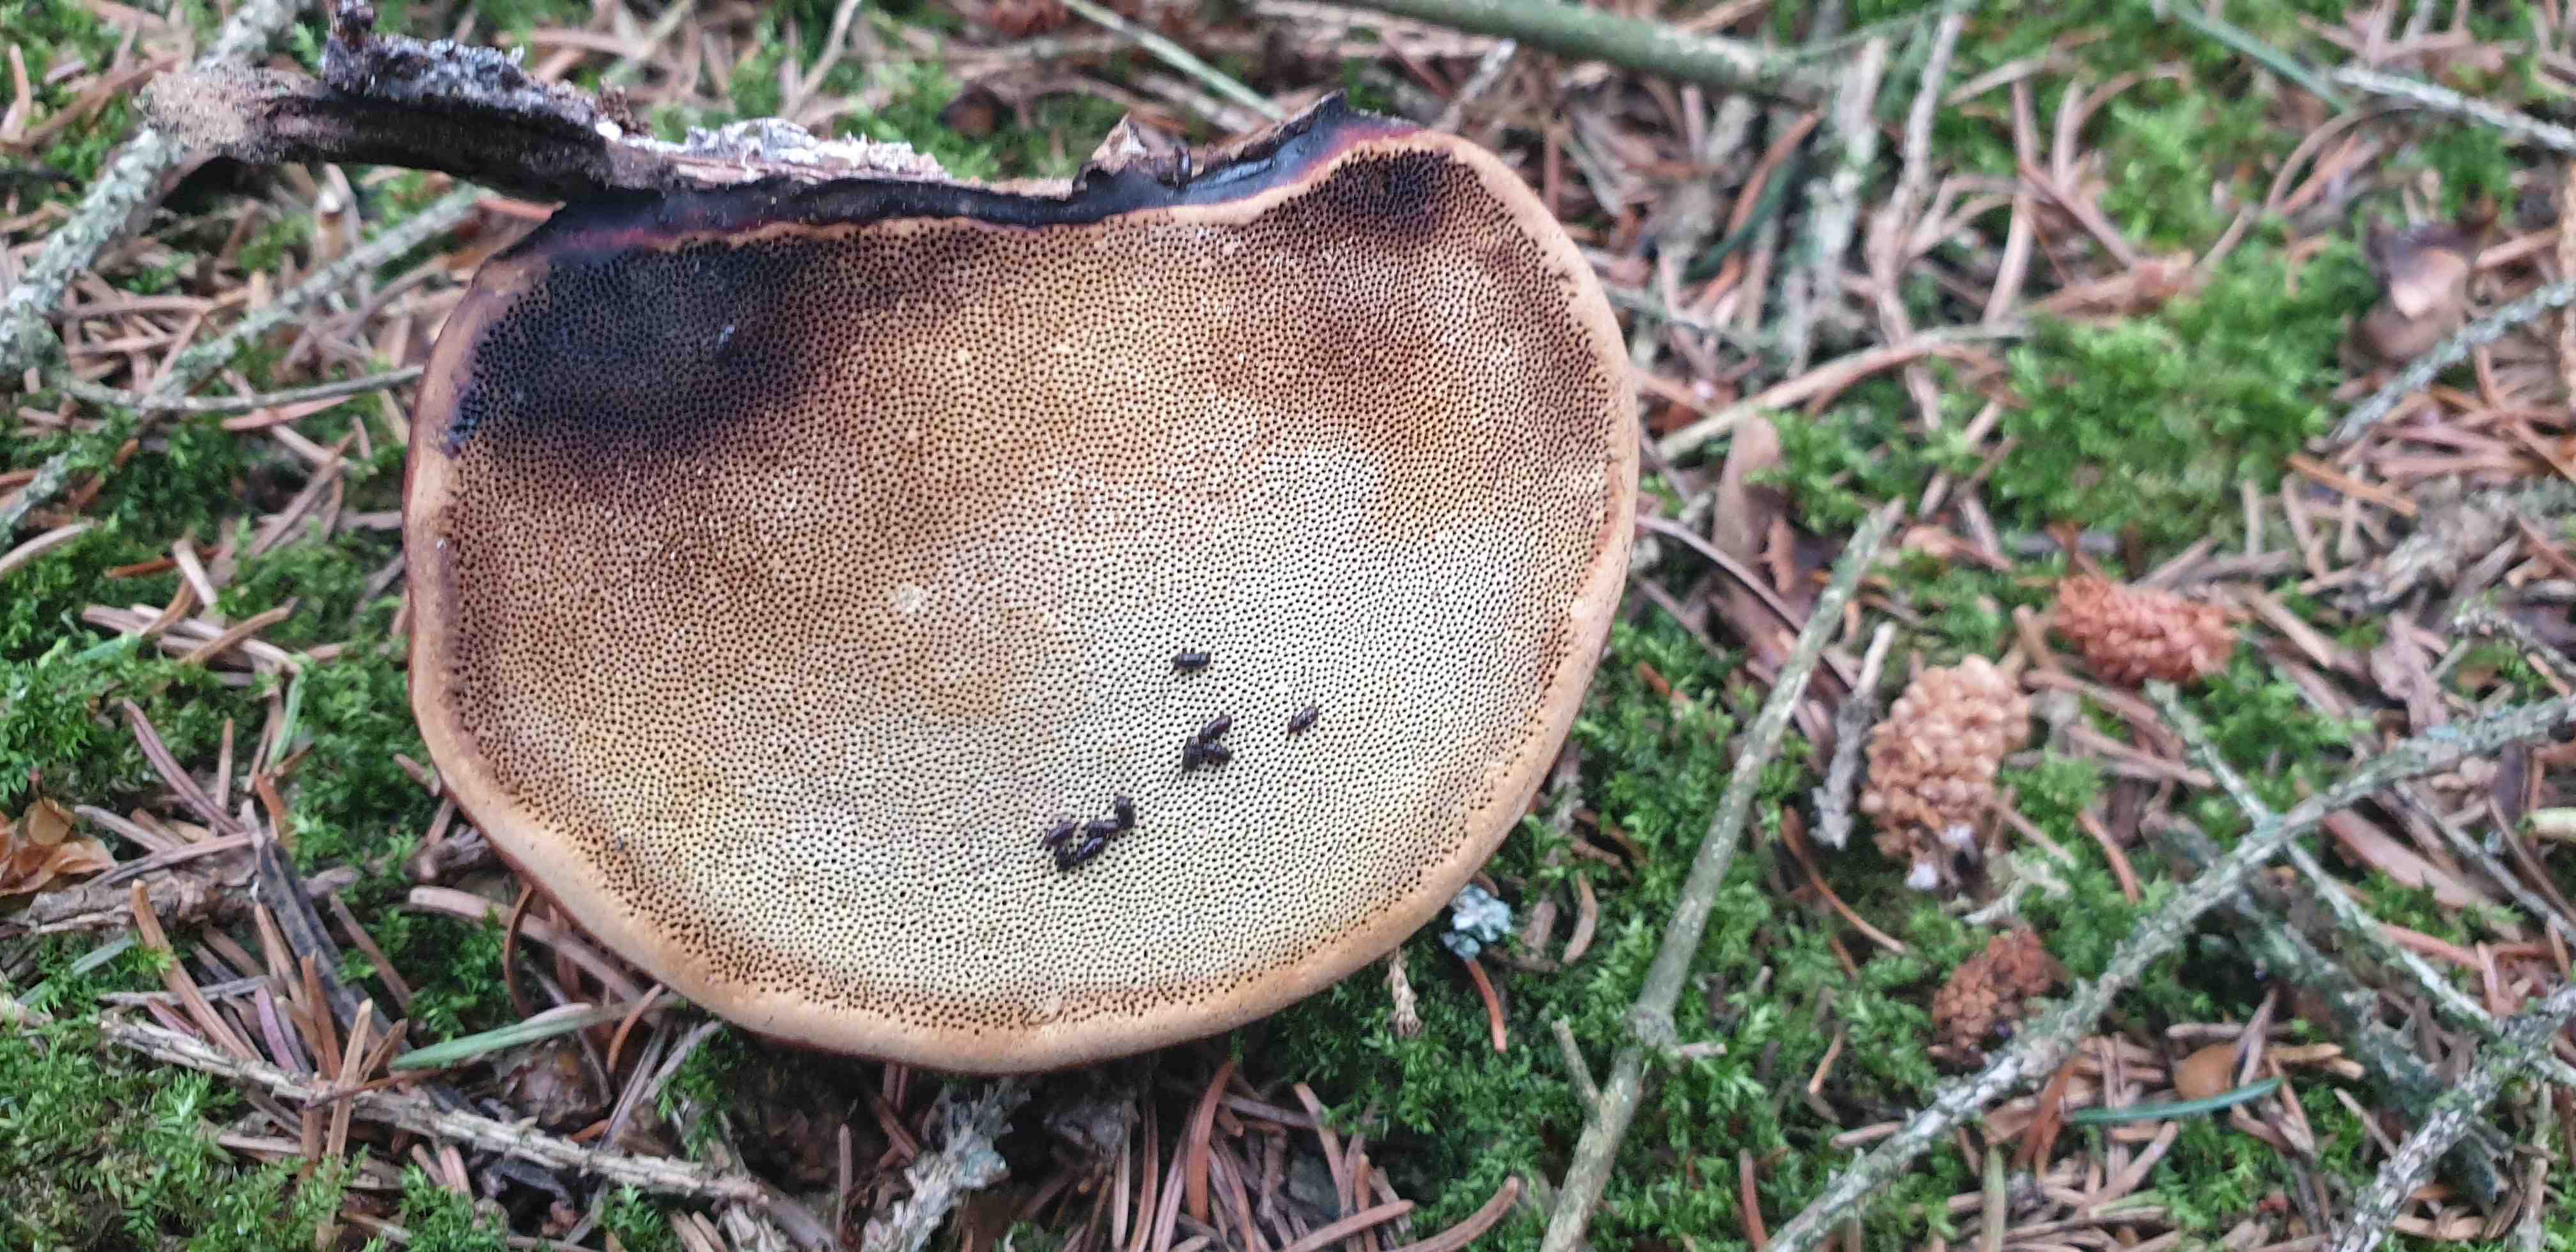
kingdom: Fungi
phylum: Basidiomycota
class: Agaricomycetes
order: Polyporales
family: Fomitopsidaceae
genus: Fomitopsis
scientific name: Fomitopsis pinicola
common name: randbæltet hovporesvamp
